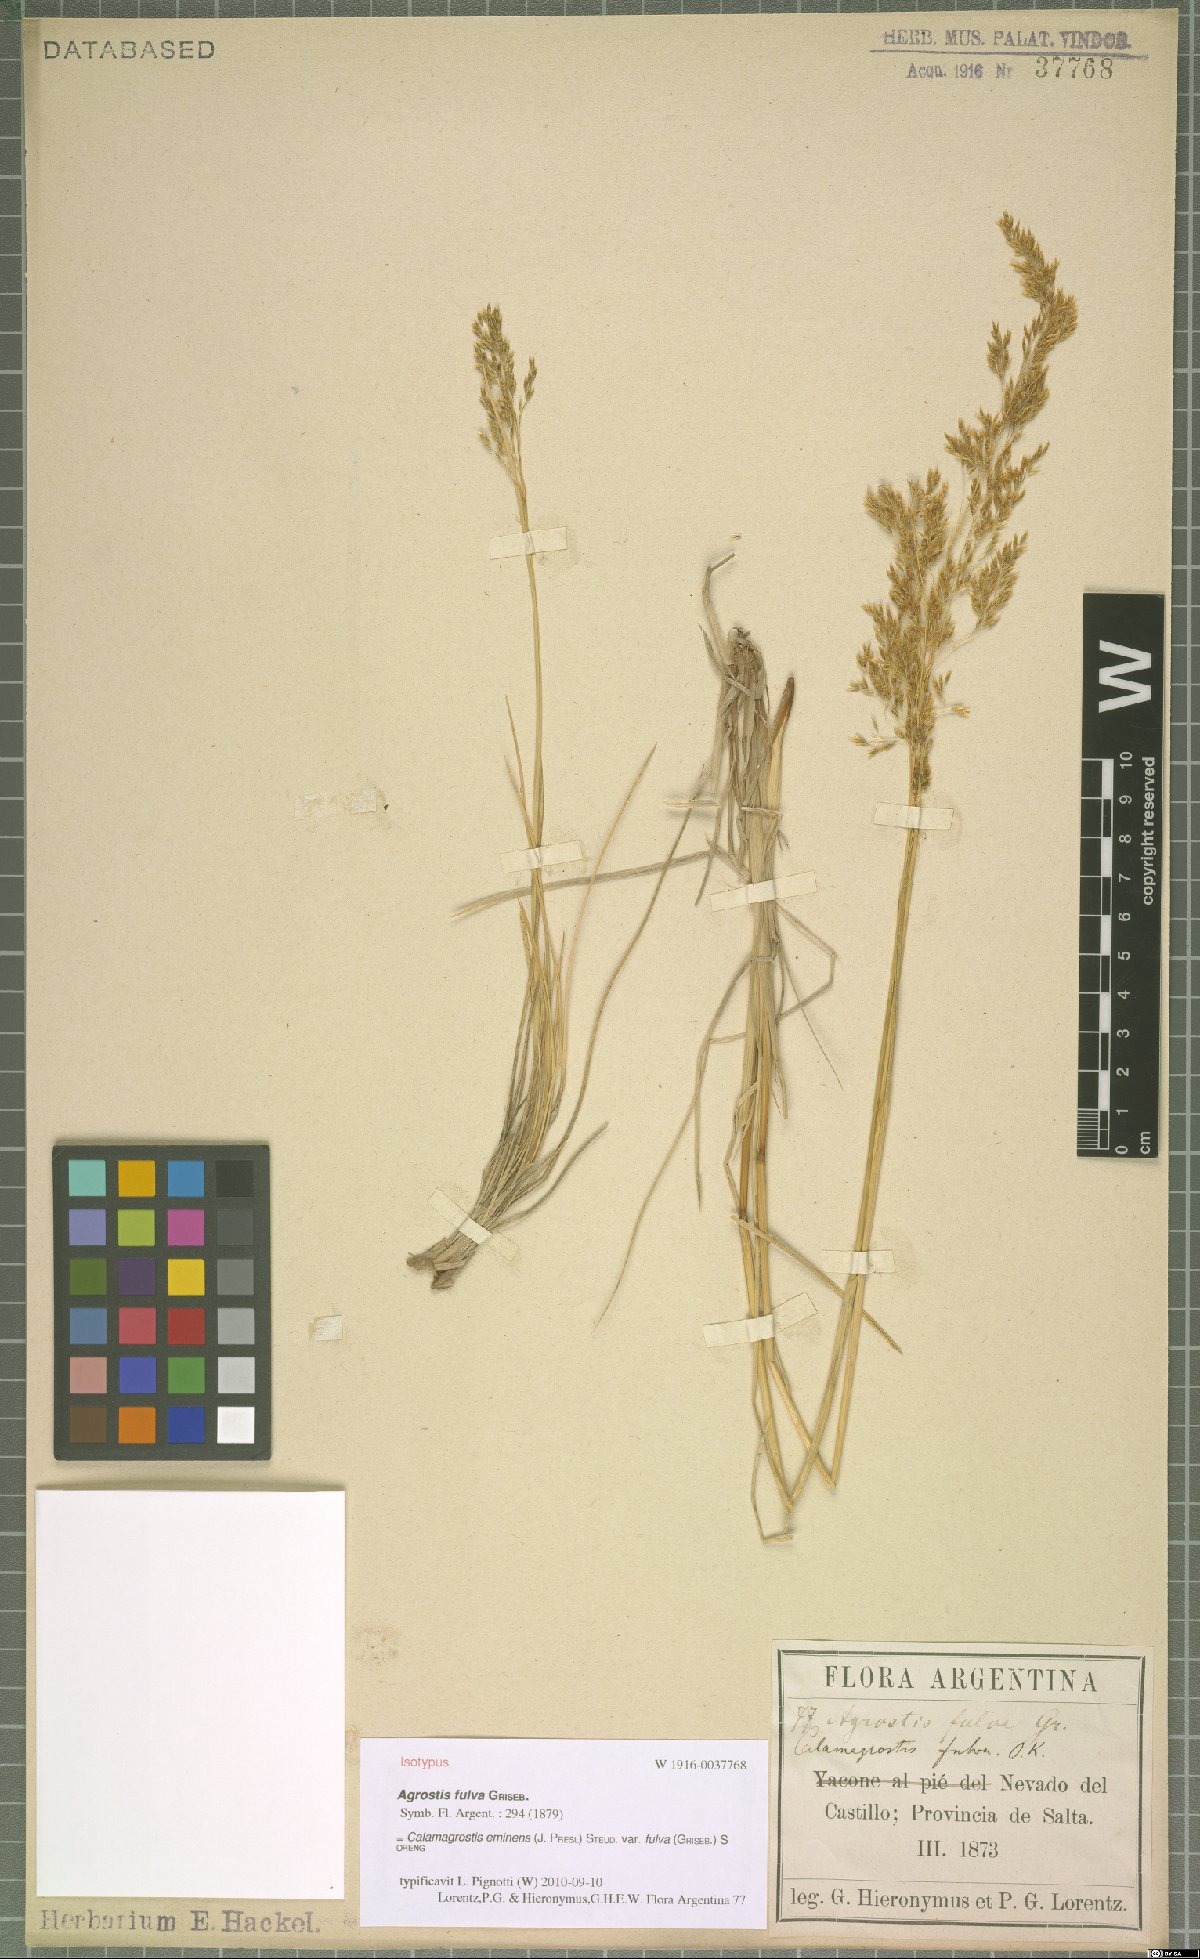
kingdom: Plantae
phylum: Tracheophyta
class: Liliopsida
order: Poales
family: Poaceae
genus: Deschampsia
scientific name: Deschampsia eminens
